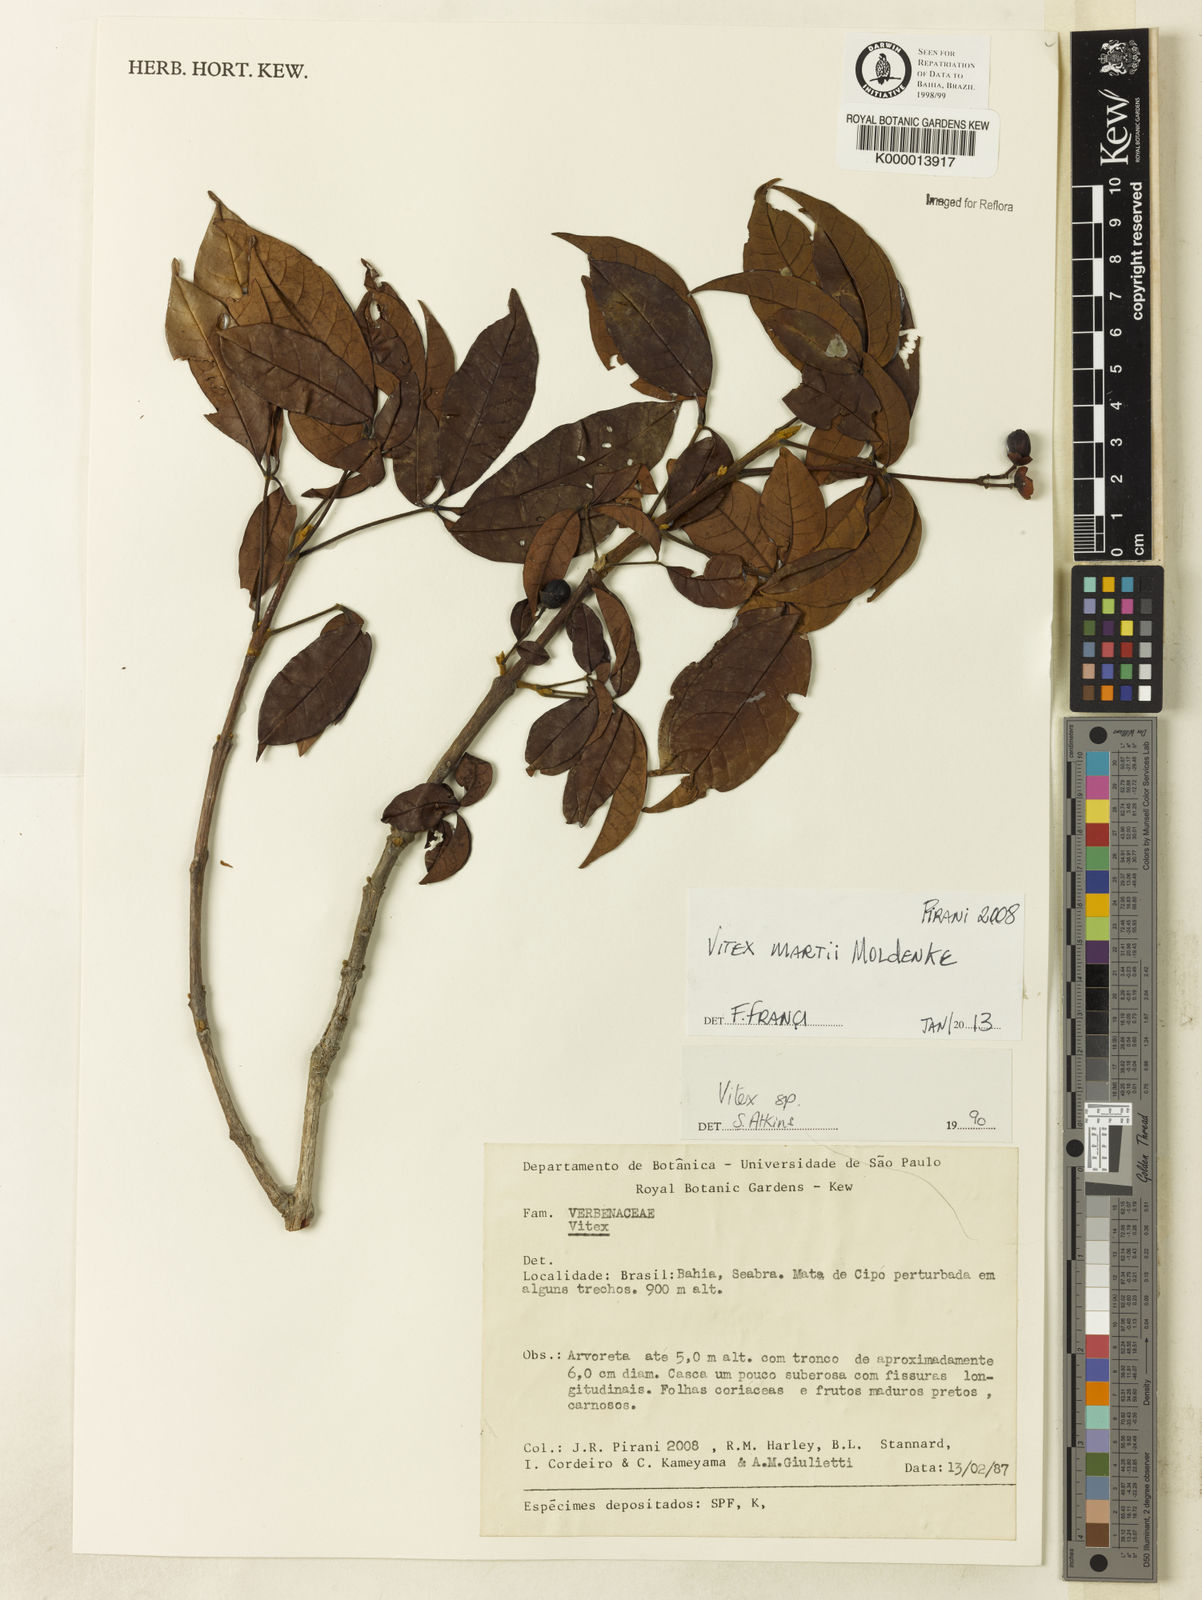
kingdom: Plantae
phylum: Tracheophyta
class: Magnoliopsida
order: Lamiales
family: Lamiaceae
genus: Vitex
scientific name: Vitex martii
